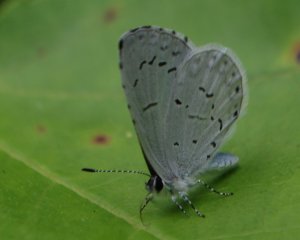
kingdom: Animalia
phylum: Arthropoda
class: Insecta
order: Lepidoptera
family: Lycaenidae
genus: Celastrina
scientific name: Celastrina idella
